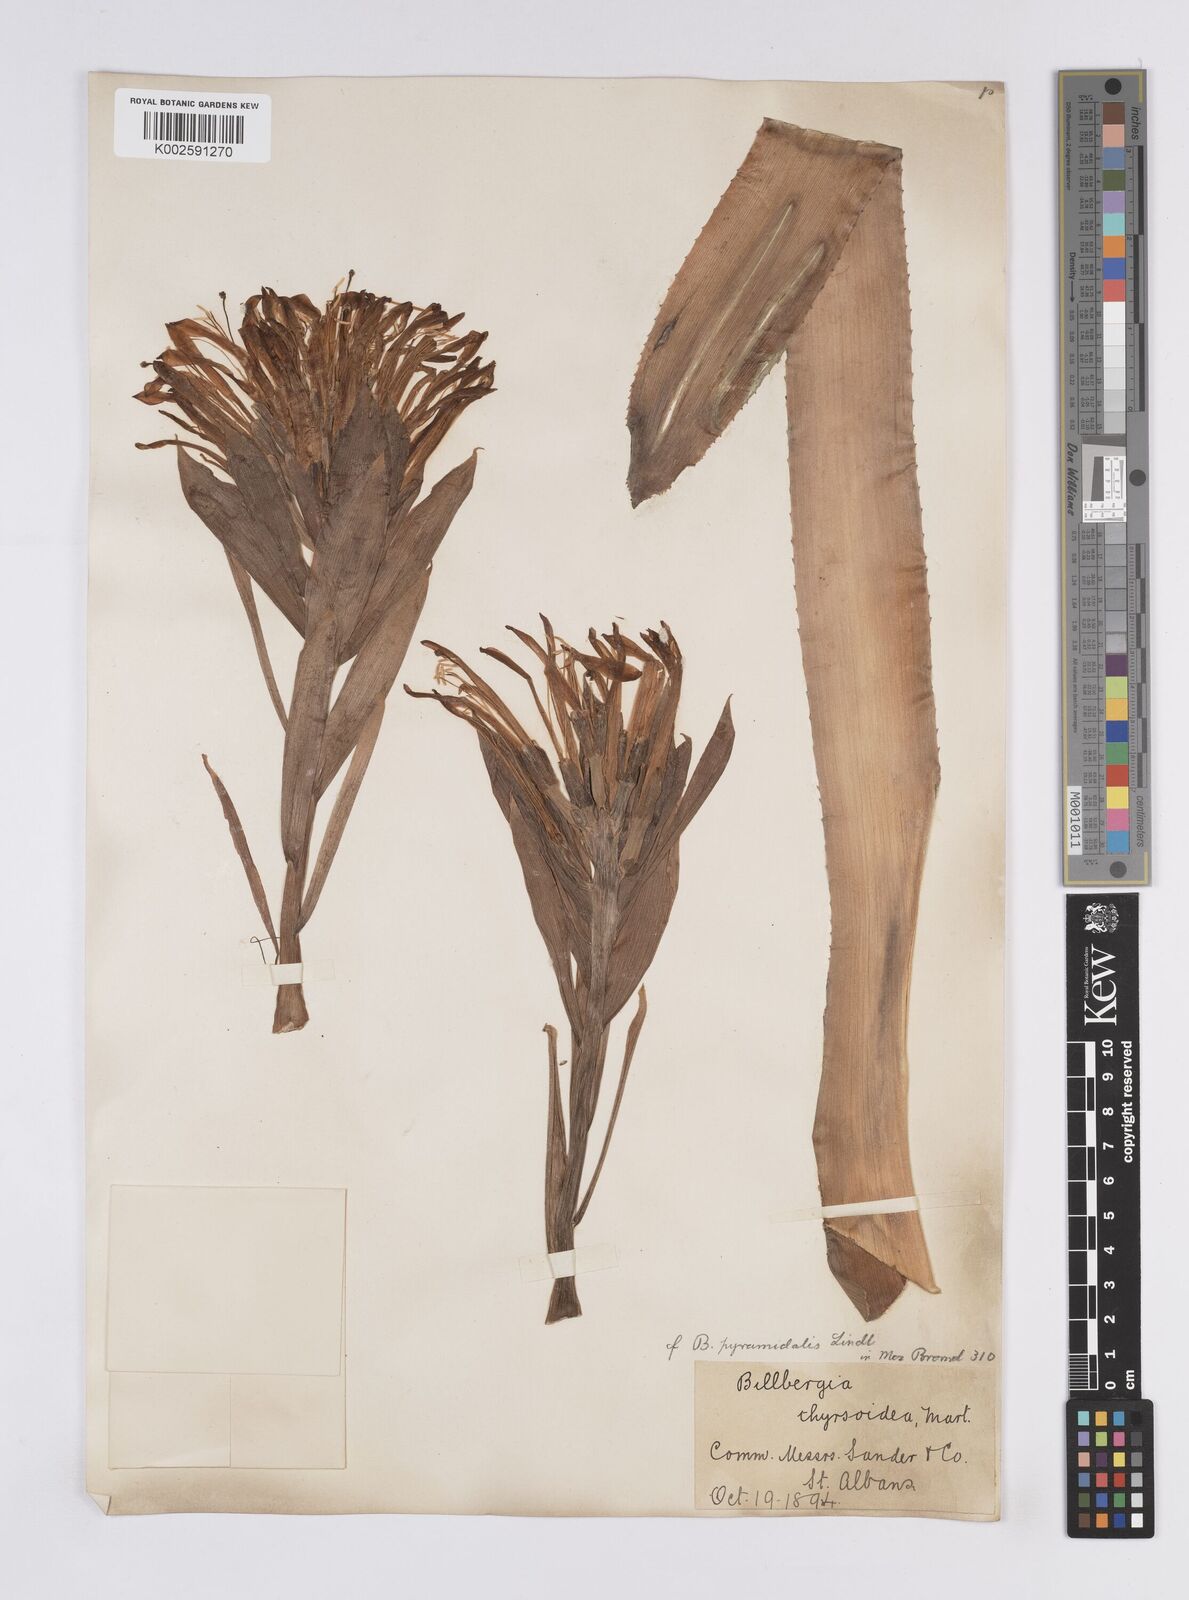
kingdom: Plantae
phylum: Tracheophyta
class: Liliopsida
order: Poales
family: Bromeliaceae
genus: Billbergia
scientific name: Billbergia pyramidalis
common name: Foolproofplant
